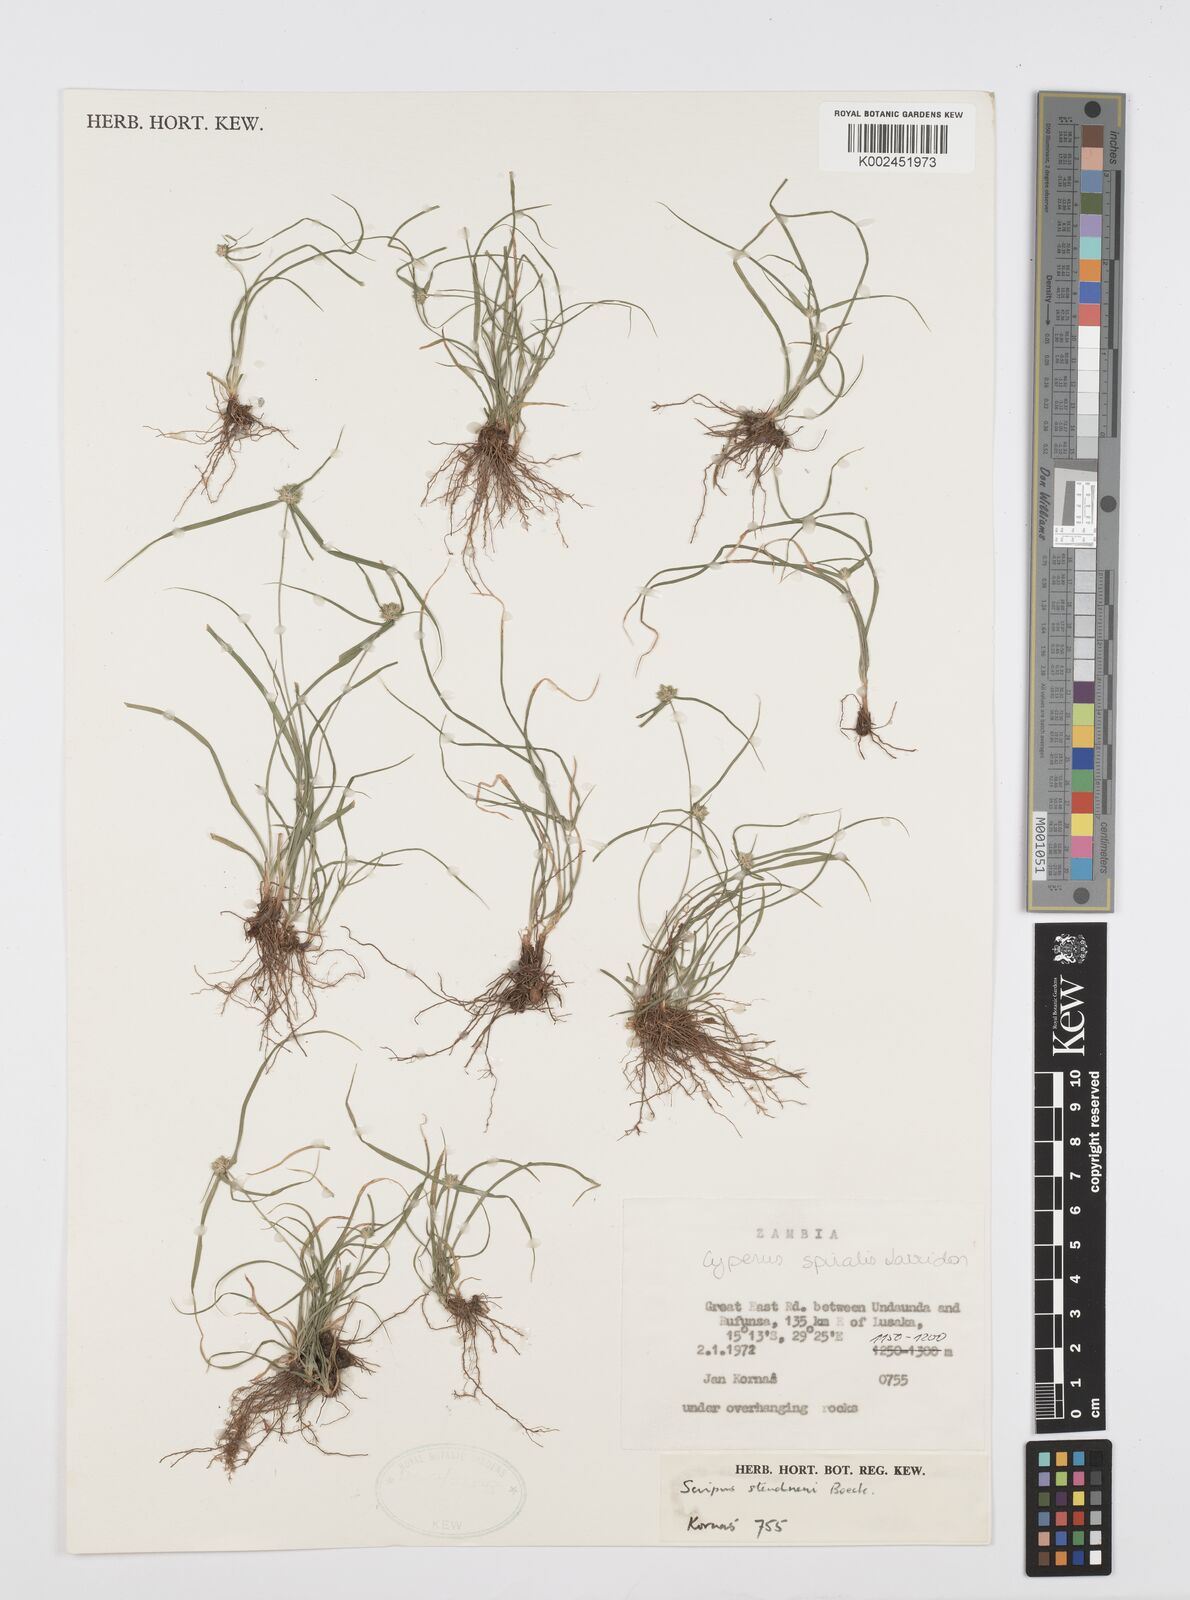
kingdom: Plantae
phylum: Tracheophyta
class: Liliopsida
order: Poales
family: Cyperaceae
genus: Cyperus
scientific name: Cyperus microcephalus
